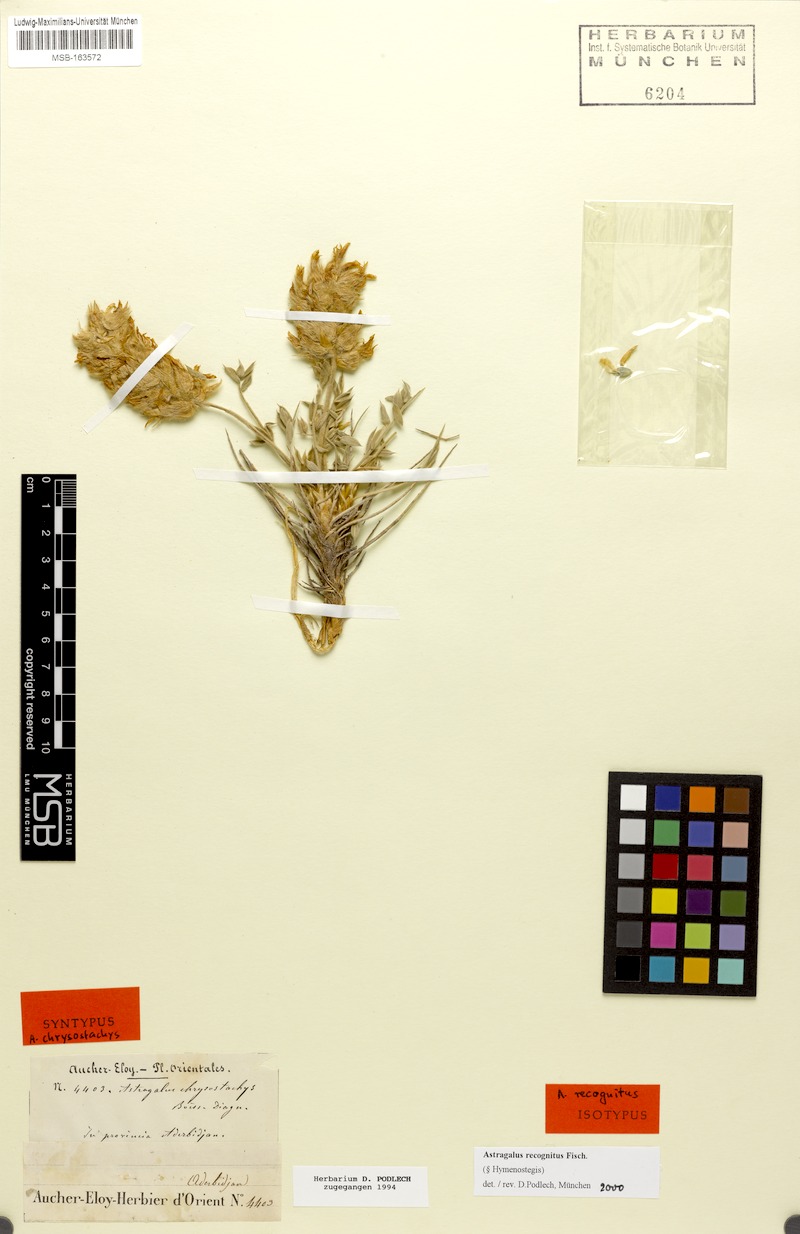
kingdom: Plantae
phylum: Tracheophyta
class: Magnoliopsida
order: Fabales
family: Fabaceae
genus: Astragalus
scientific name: Astragalus recognitus
